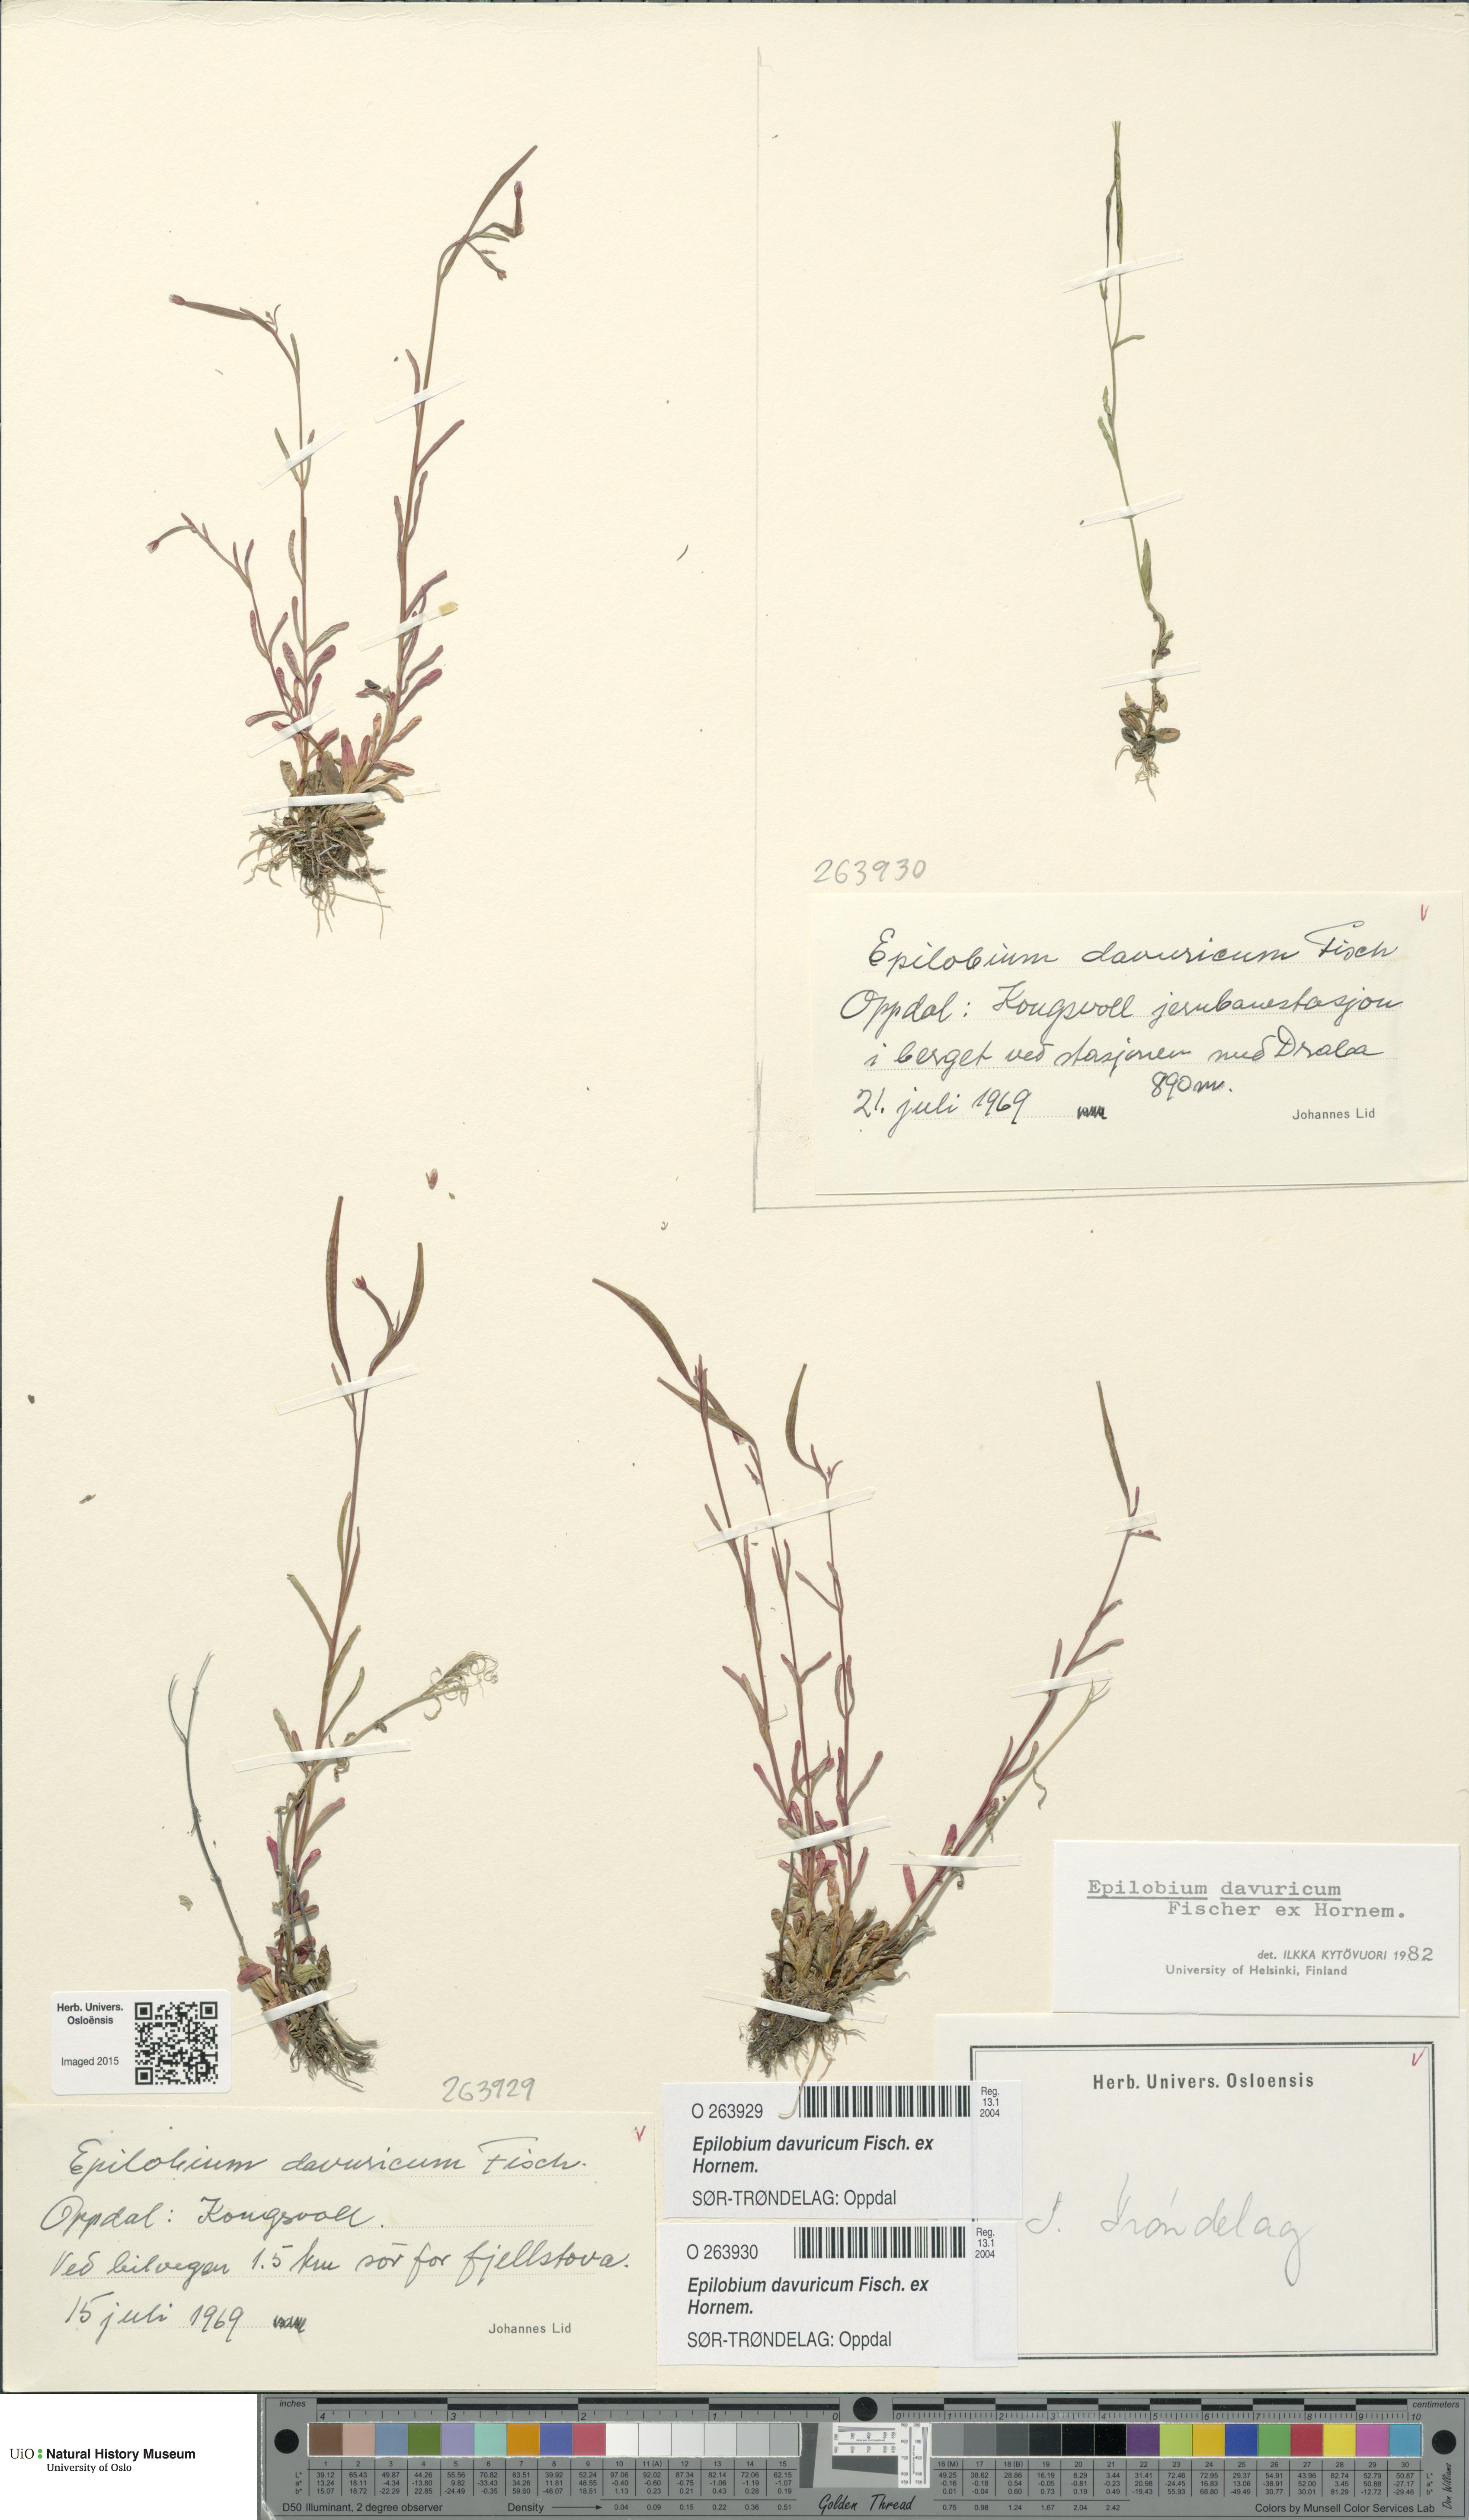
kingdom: Plantae
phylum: Tracheophyta
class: Magnoliopsida
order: Myrtales
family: Onagraceae
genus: Epilobium
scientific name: Epilobium davuricum
